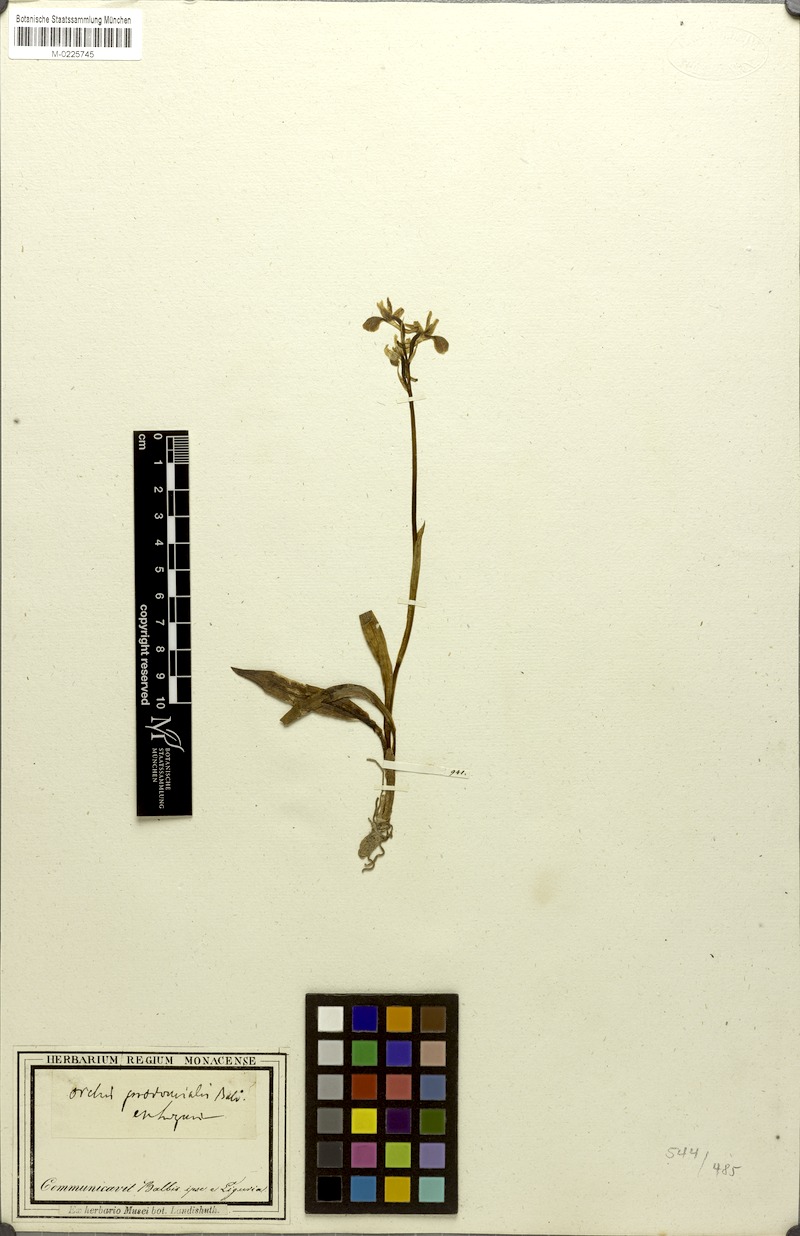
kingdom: Plantae
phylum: Tracheophyta
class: Liliopsida
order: Asparagales
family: Orchidaceae
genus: Orchis
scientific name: Orchis provincialis
